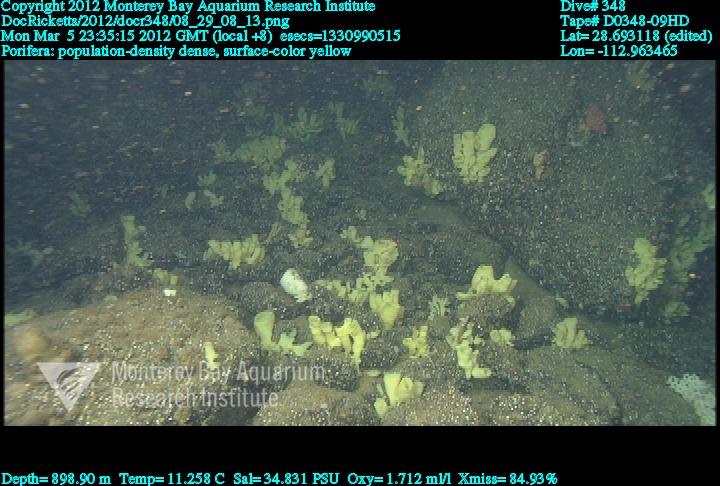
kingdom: Animalia
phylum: Porifera
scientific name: Porifera
